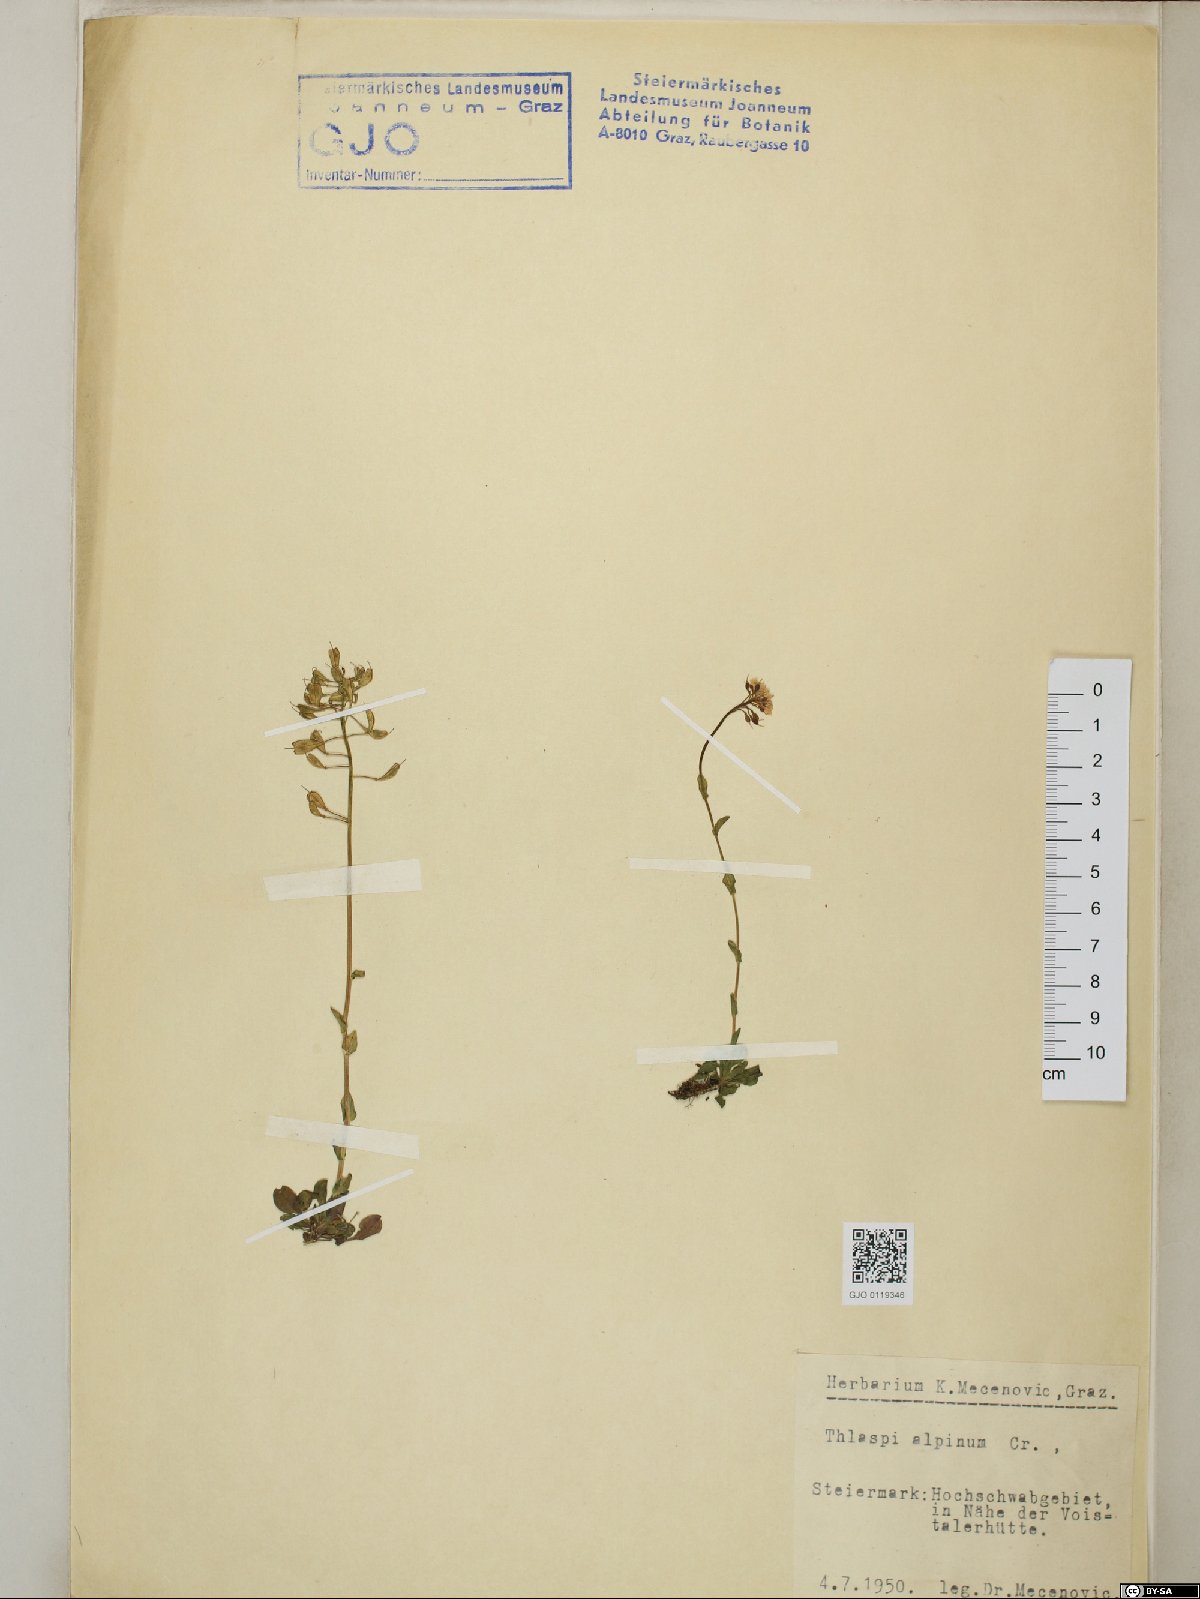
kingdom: Plantae
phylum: Tracheophyta
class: Magnoliopsida
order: Brassicales
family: Brassicaceae
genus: Noccaea
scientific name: Noccaea alpestris
